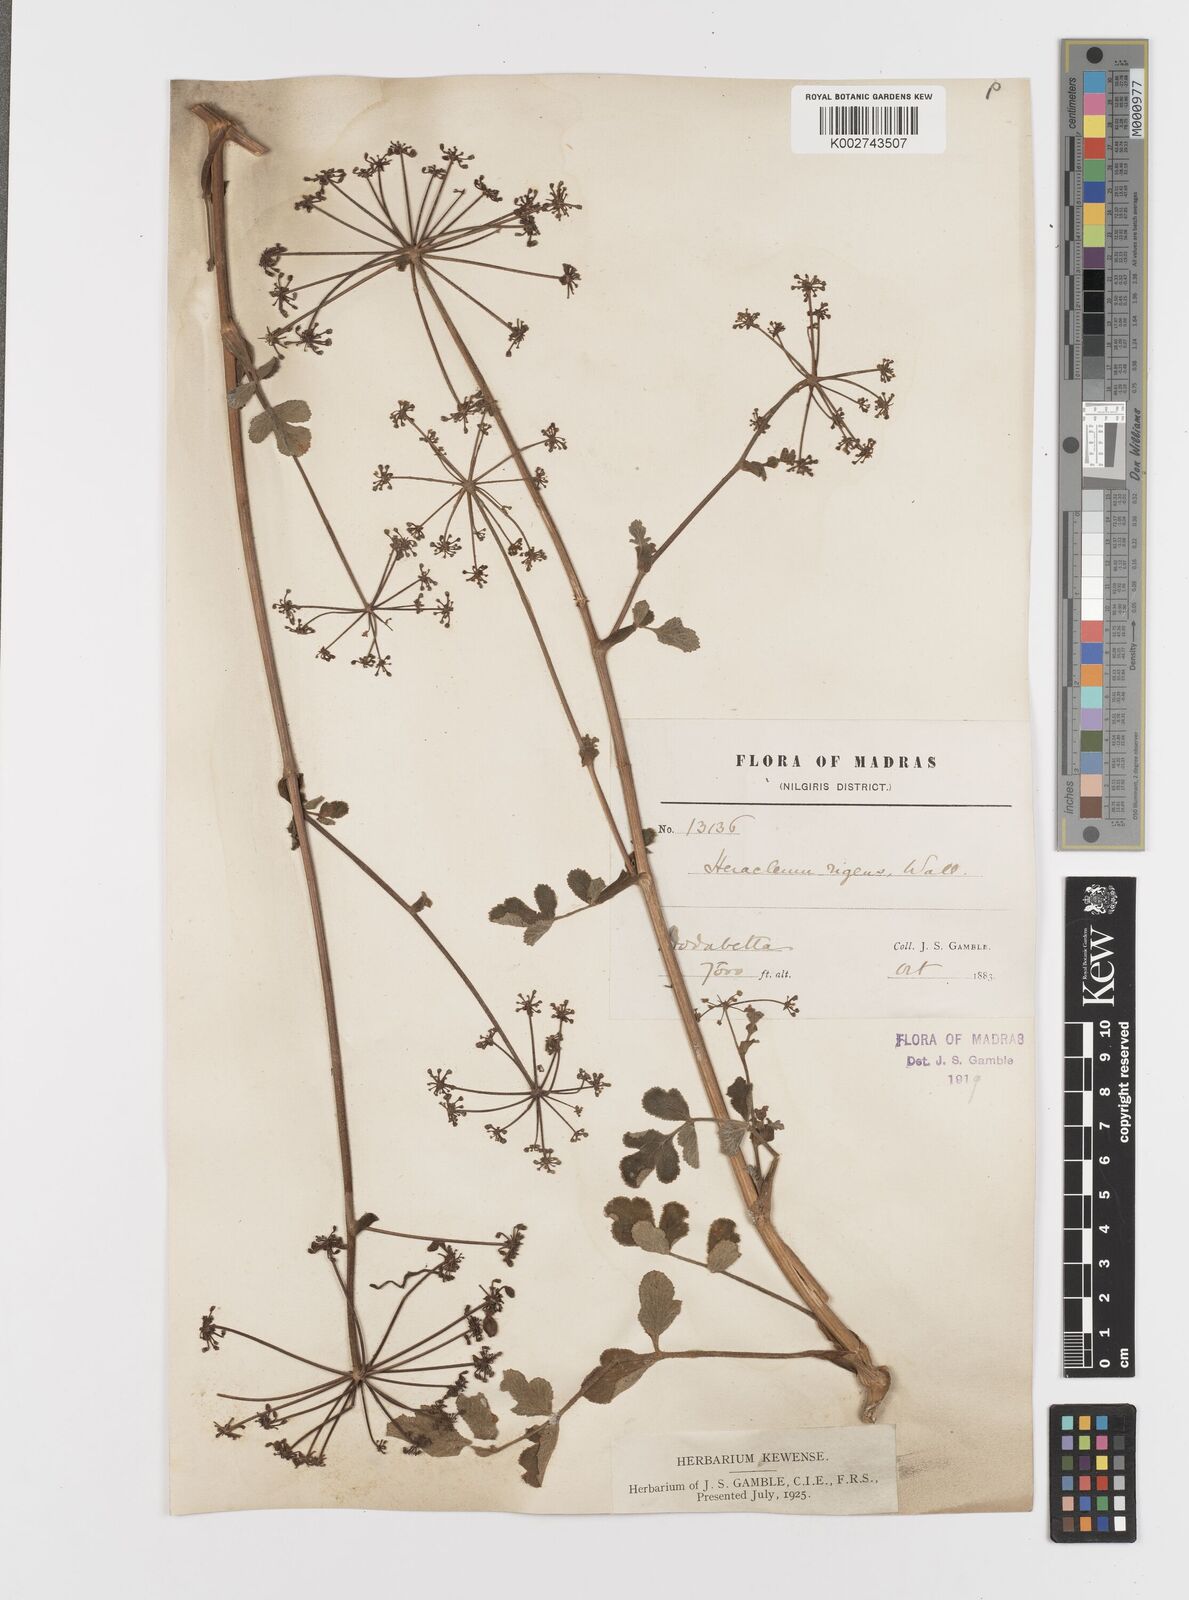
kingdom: Plantae
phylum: Tracheophyta
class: Magnoliopsida
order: Apiales
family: Apiaceae
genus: Tetrataenium
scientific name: Tetrataenium rigens
